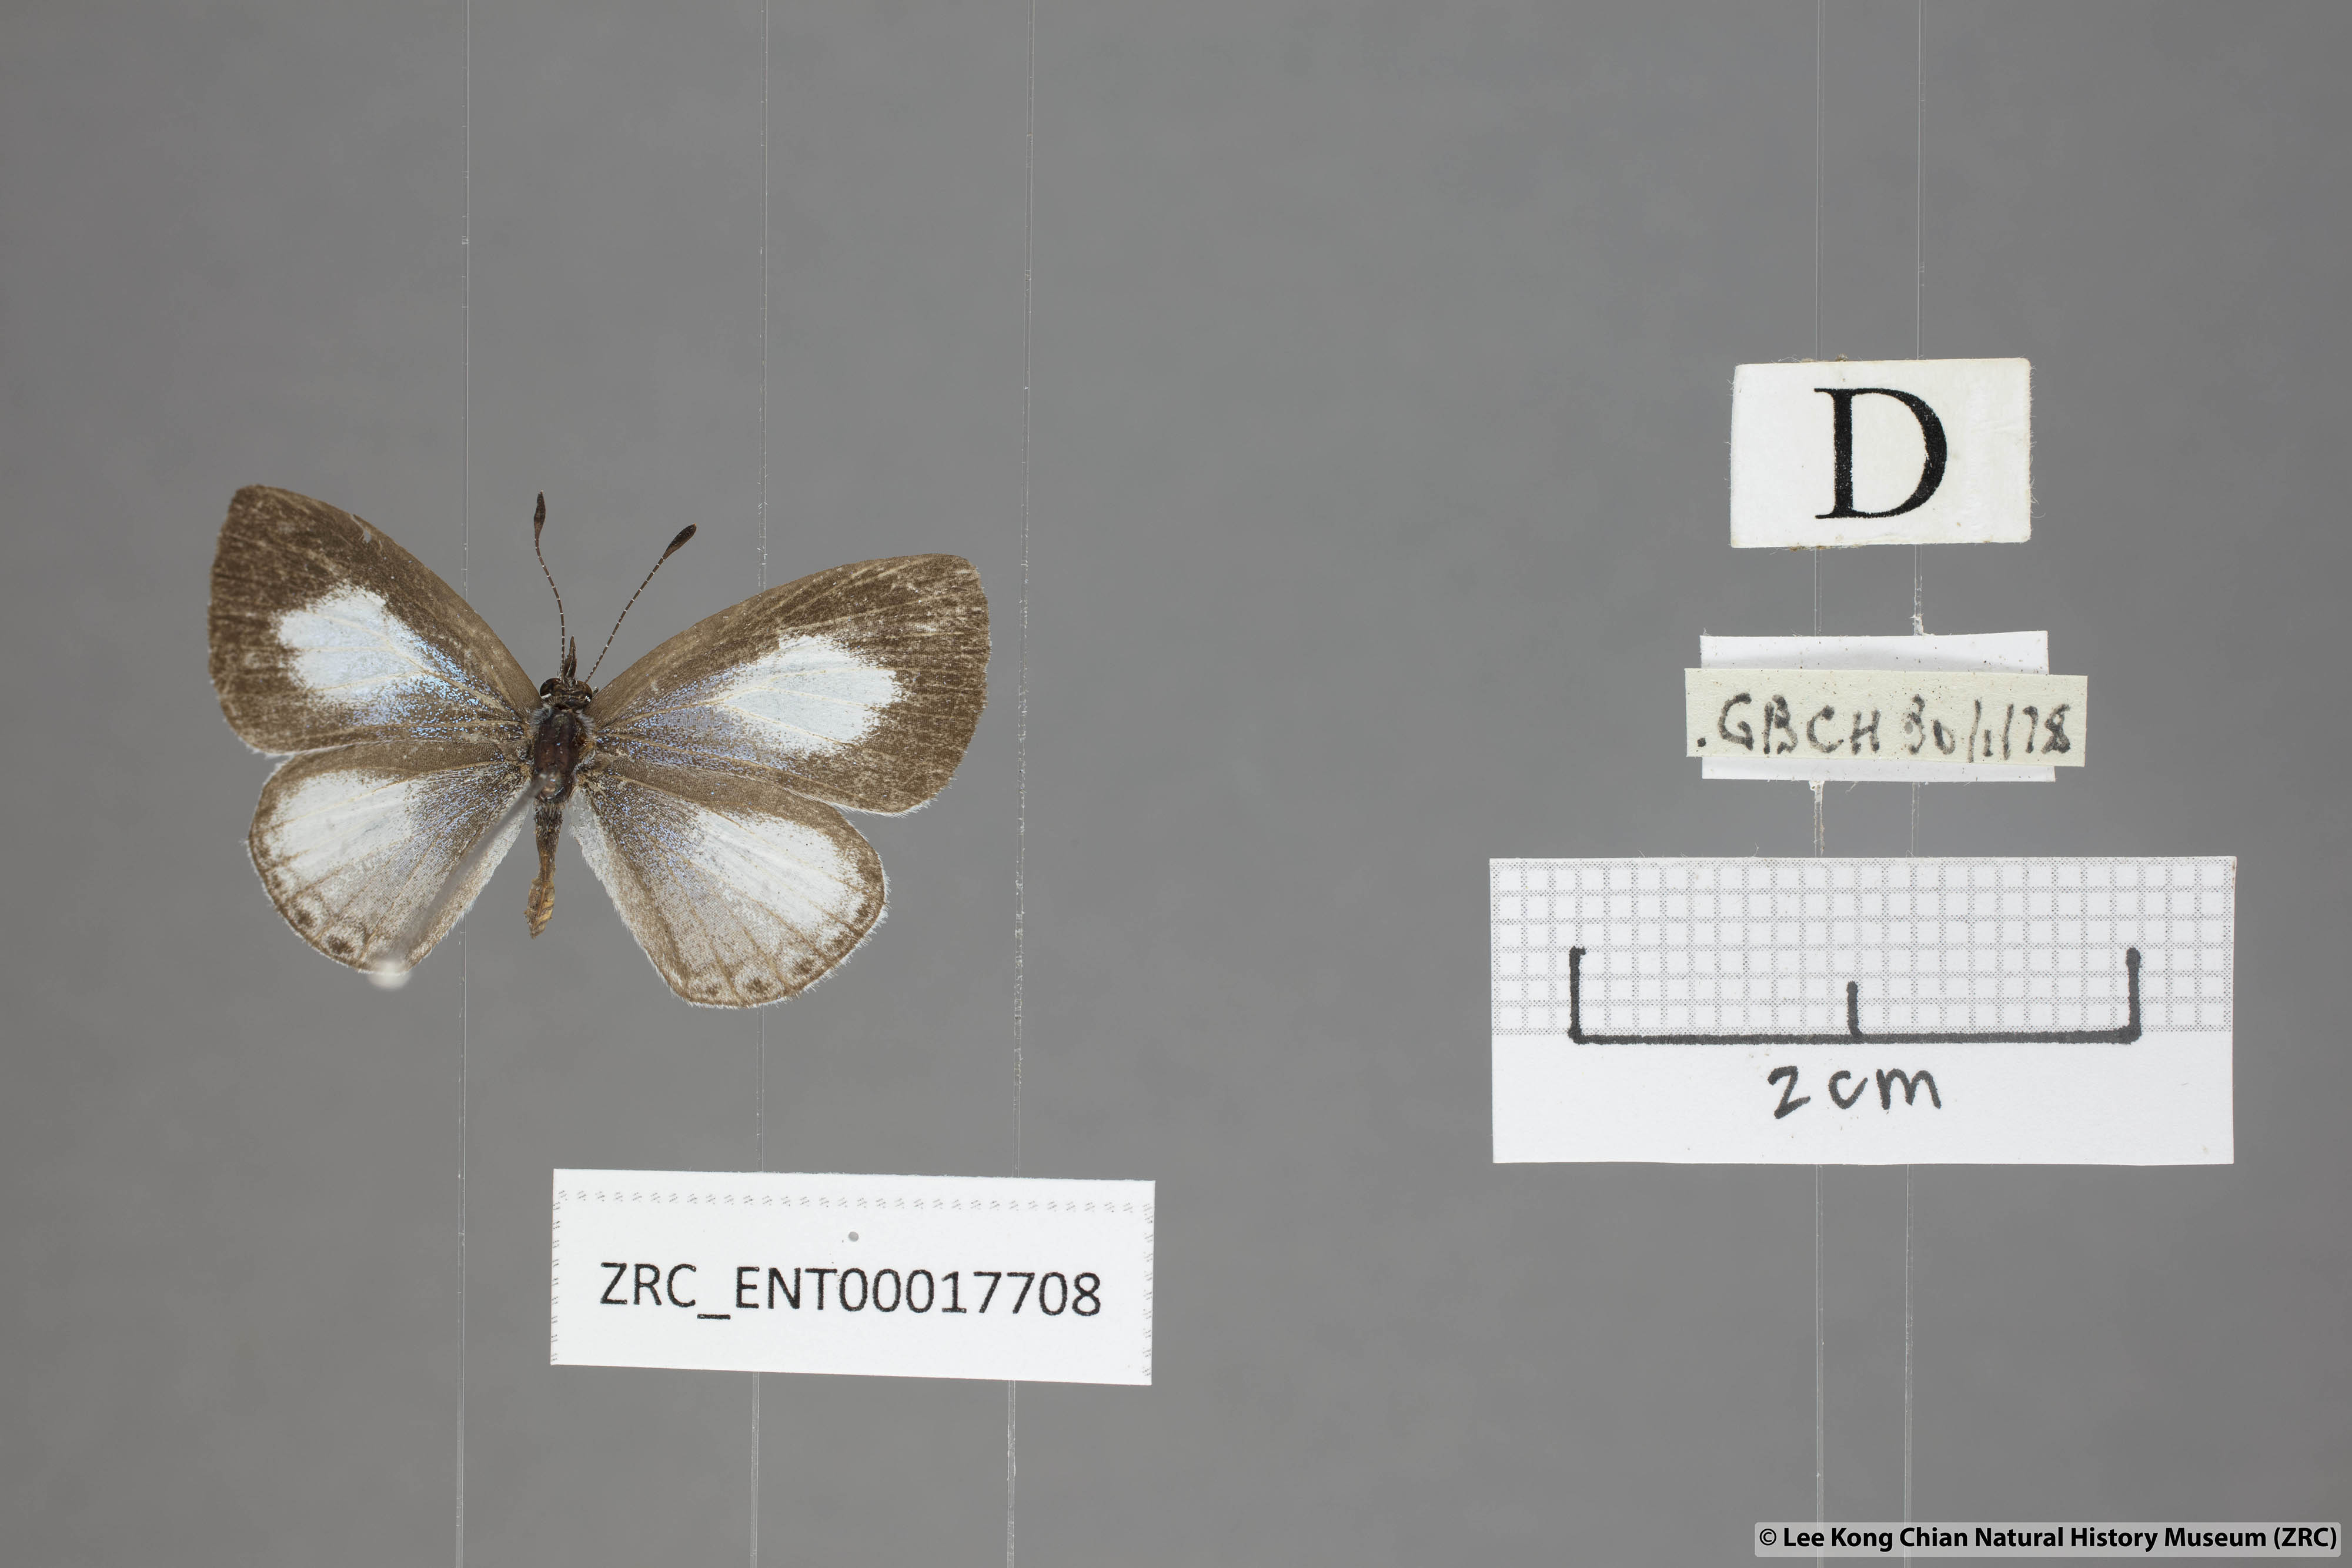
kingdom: Animalia
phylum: Arthropoda
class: Insecta
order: Lepidoptera
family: Lycaenidae
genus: Lycaenopsis
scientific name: Lycaenopsis marginata
